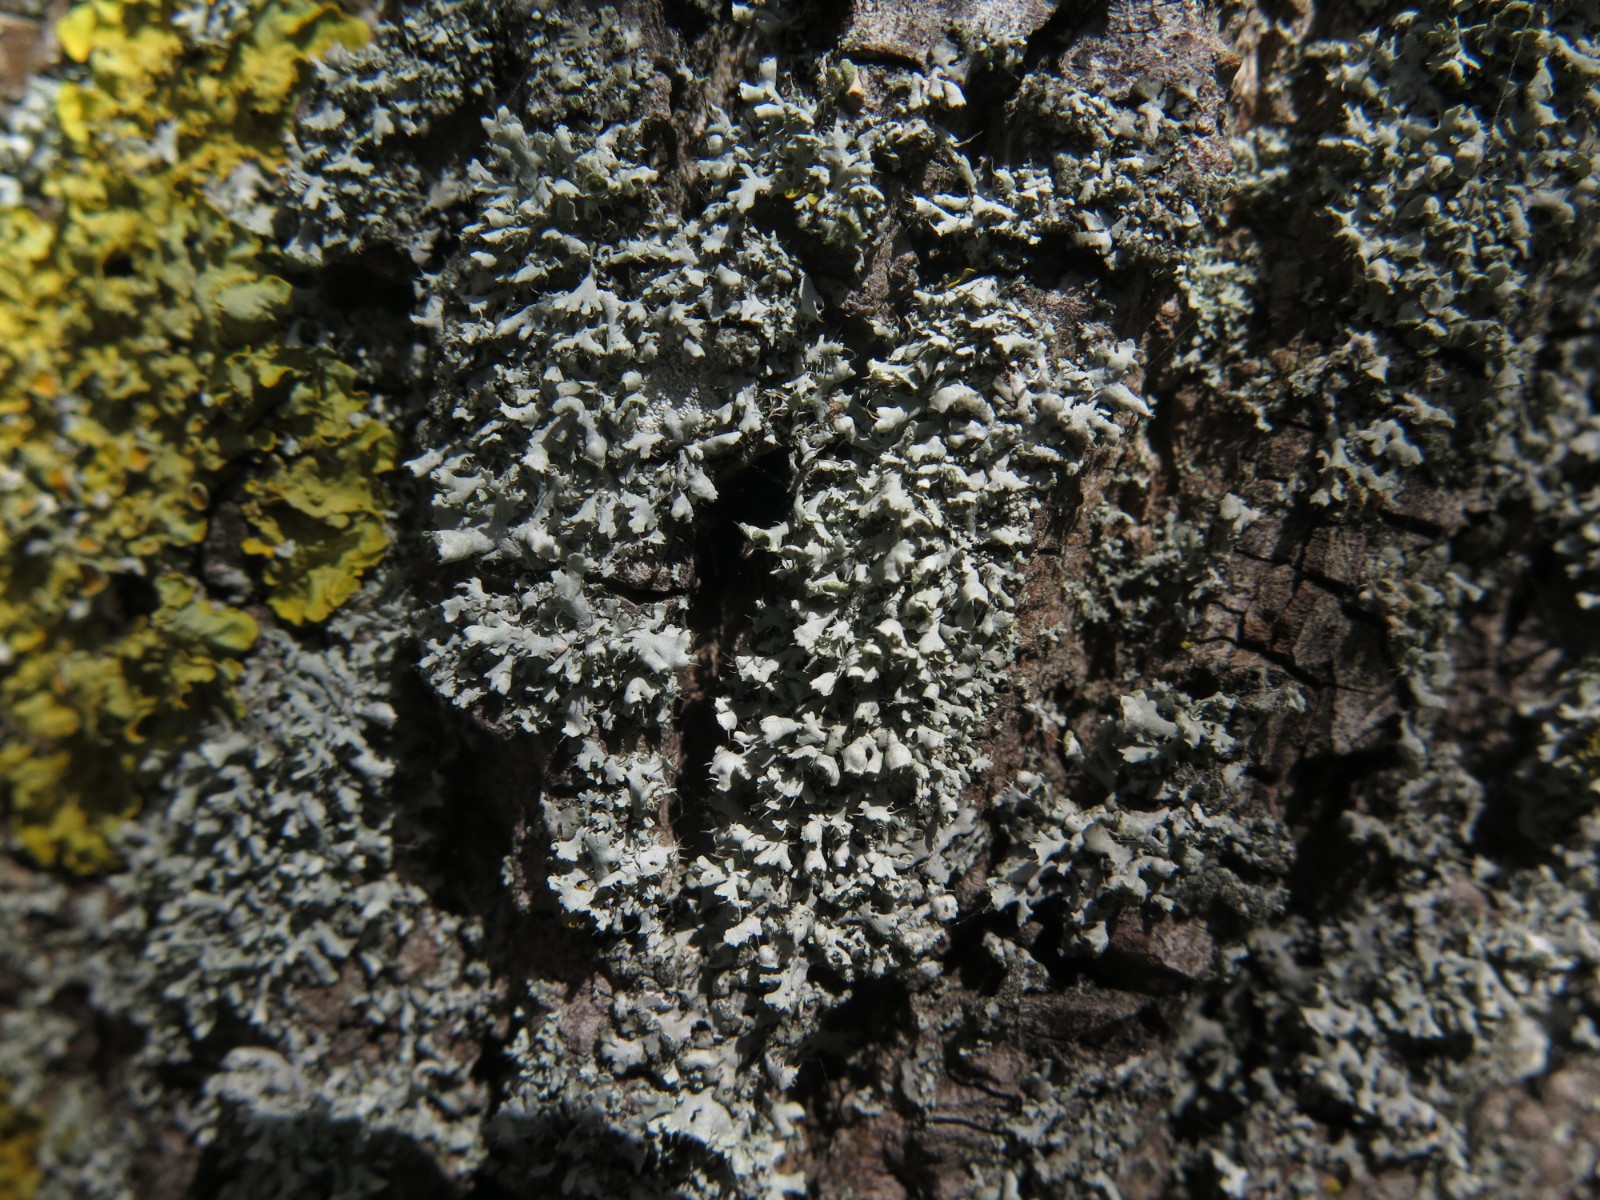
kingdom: Fungi
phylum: Ascomycota
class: Lecanoromycetes
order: Caliciales
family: Physciaceae
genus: Physcia
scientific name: Physcia tenella
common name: spæd rosetlav
